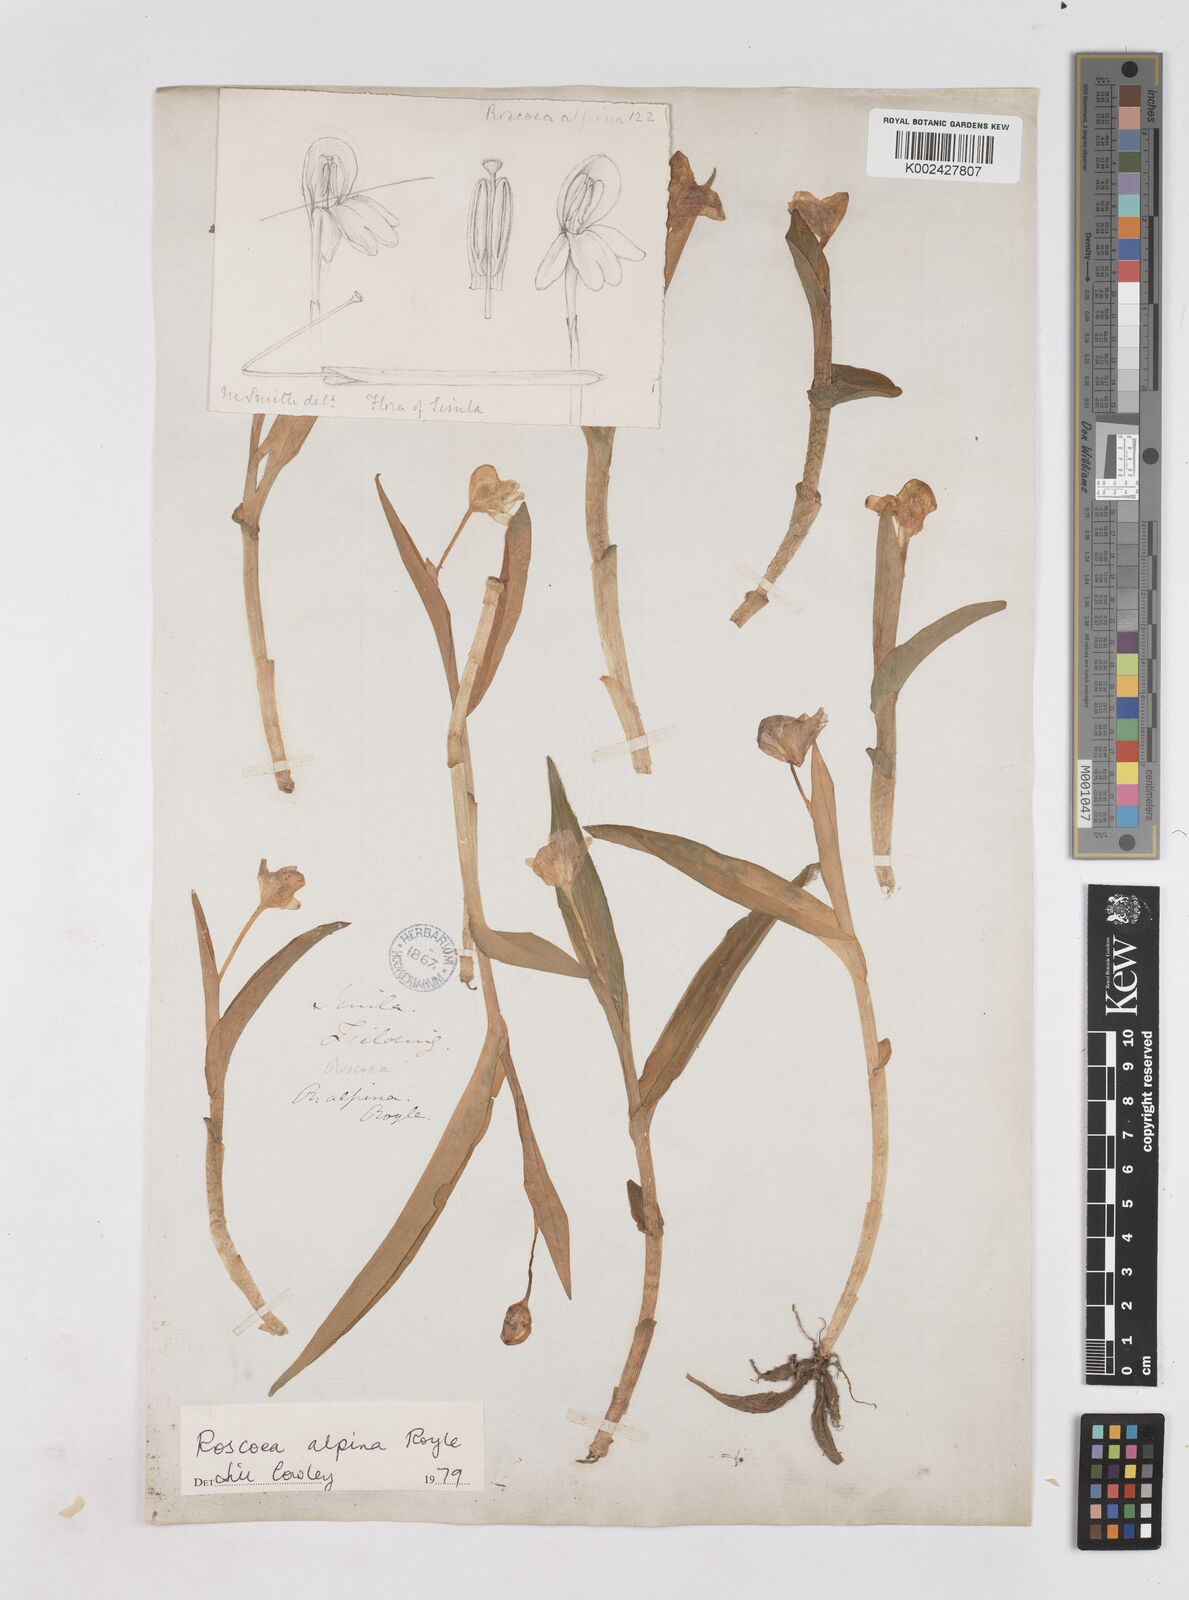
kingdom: Plantae
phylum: Tracheophyta
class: Liliopsida
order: Zingiberales
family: Zingiberaceae
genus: Roscoea
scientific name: Roscoea alpina
